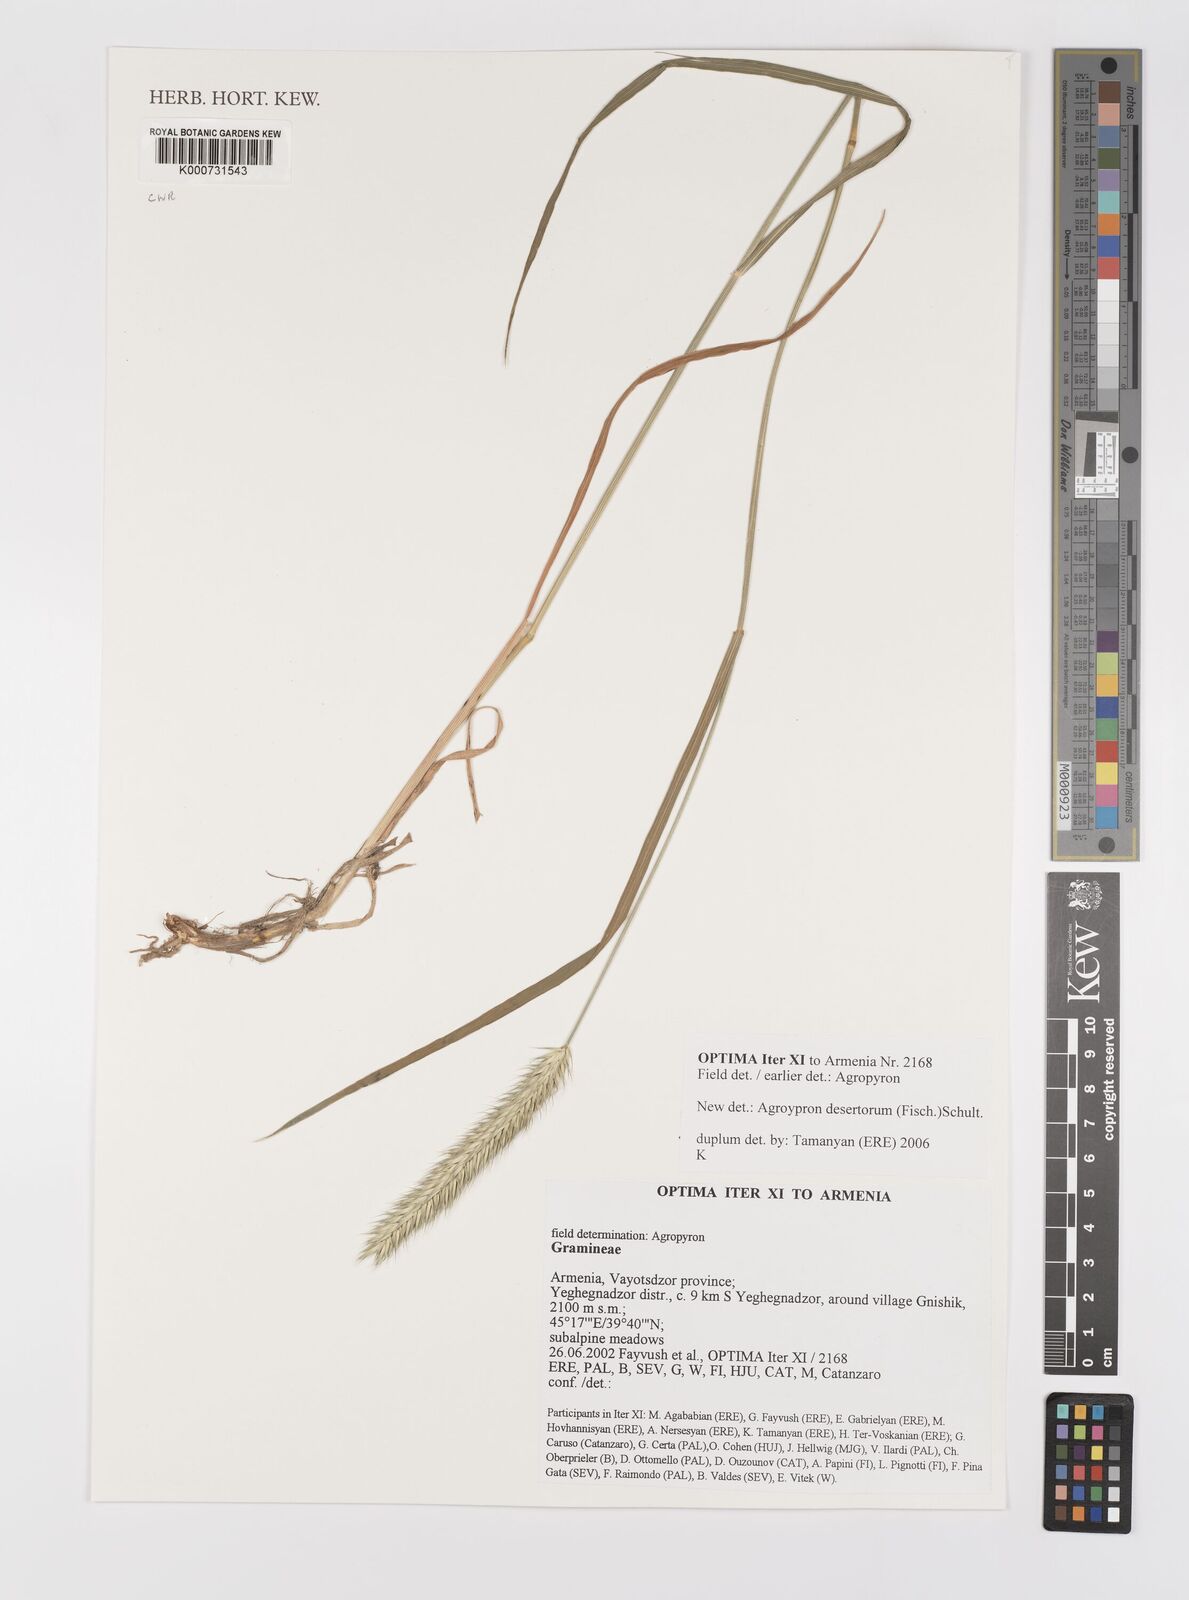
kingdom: Plantae
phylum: Tracheophyta
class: Liliopsida
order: Poales
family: Poaceae
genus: Agropyron
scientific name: Agropyron desertorum
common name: Desert wheatgrass
